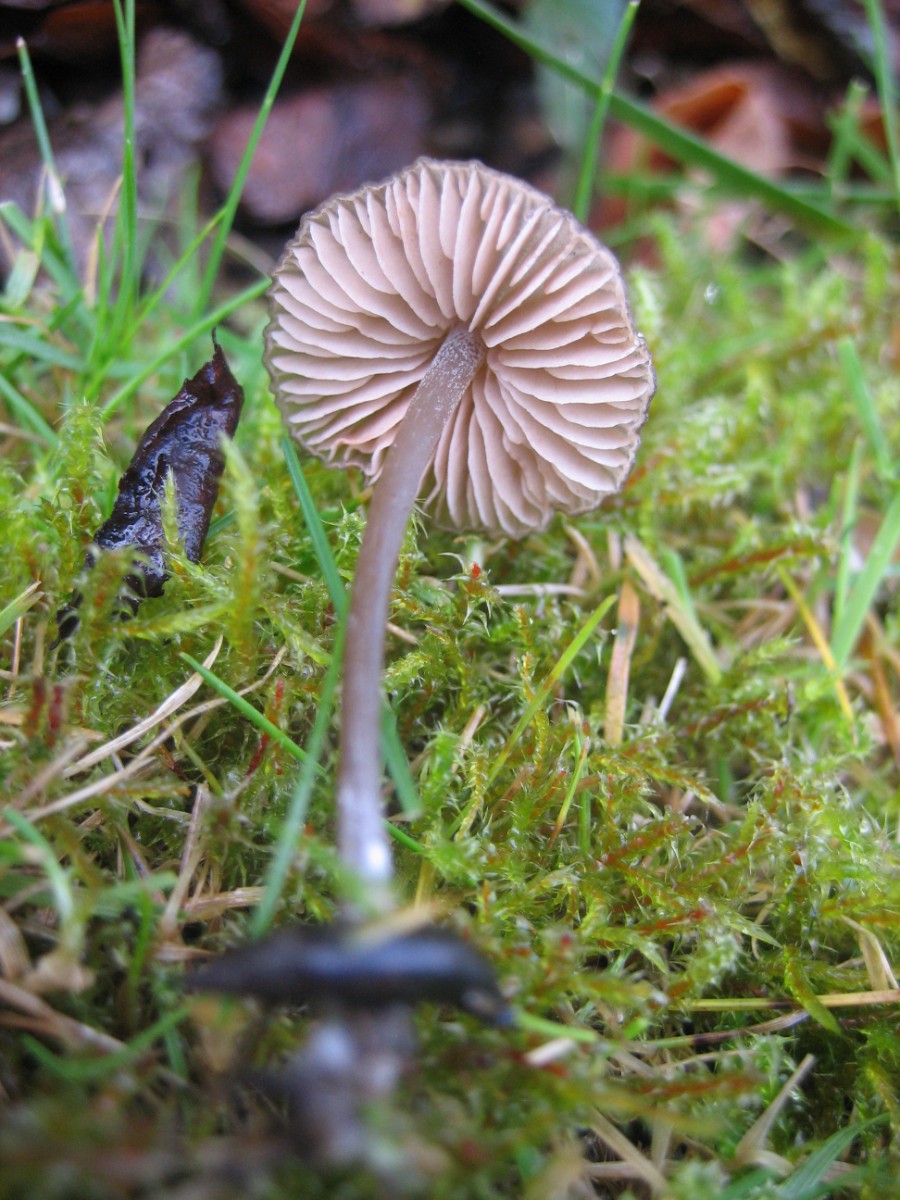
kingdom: Fungi
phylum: Basidiomycota
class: Agaricomycetes
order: Agaricales
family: Entolomataceae
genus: Entoloma
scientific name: Entoloma
